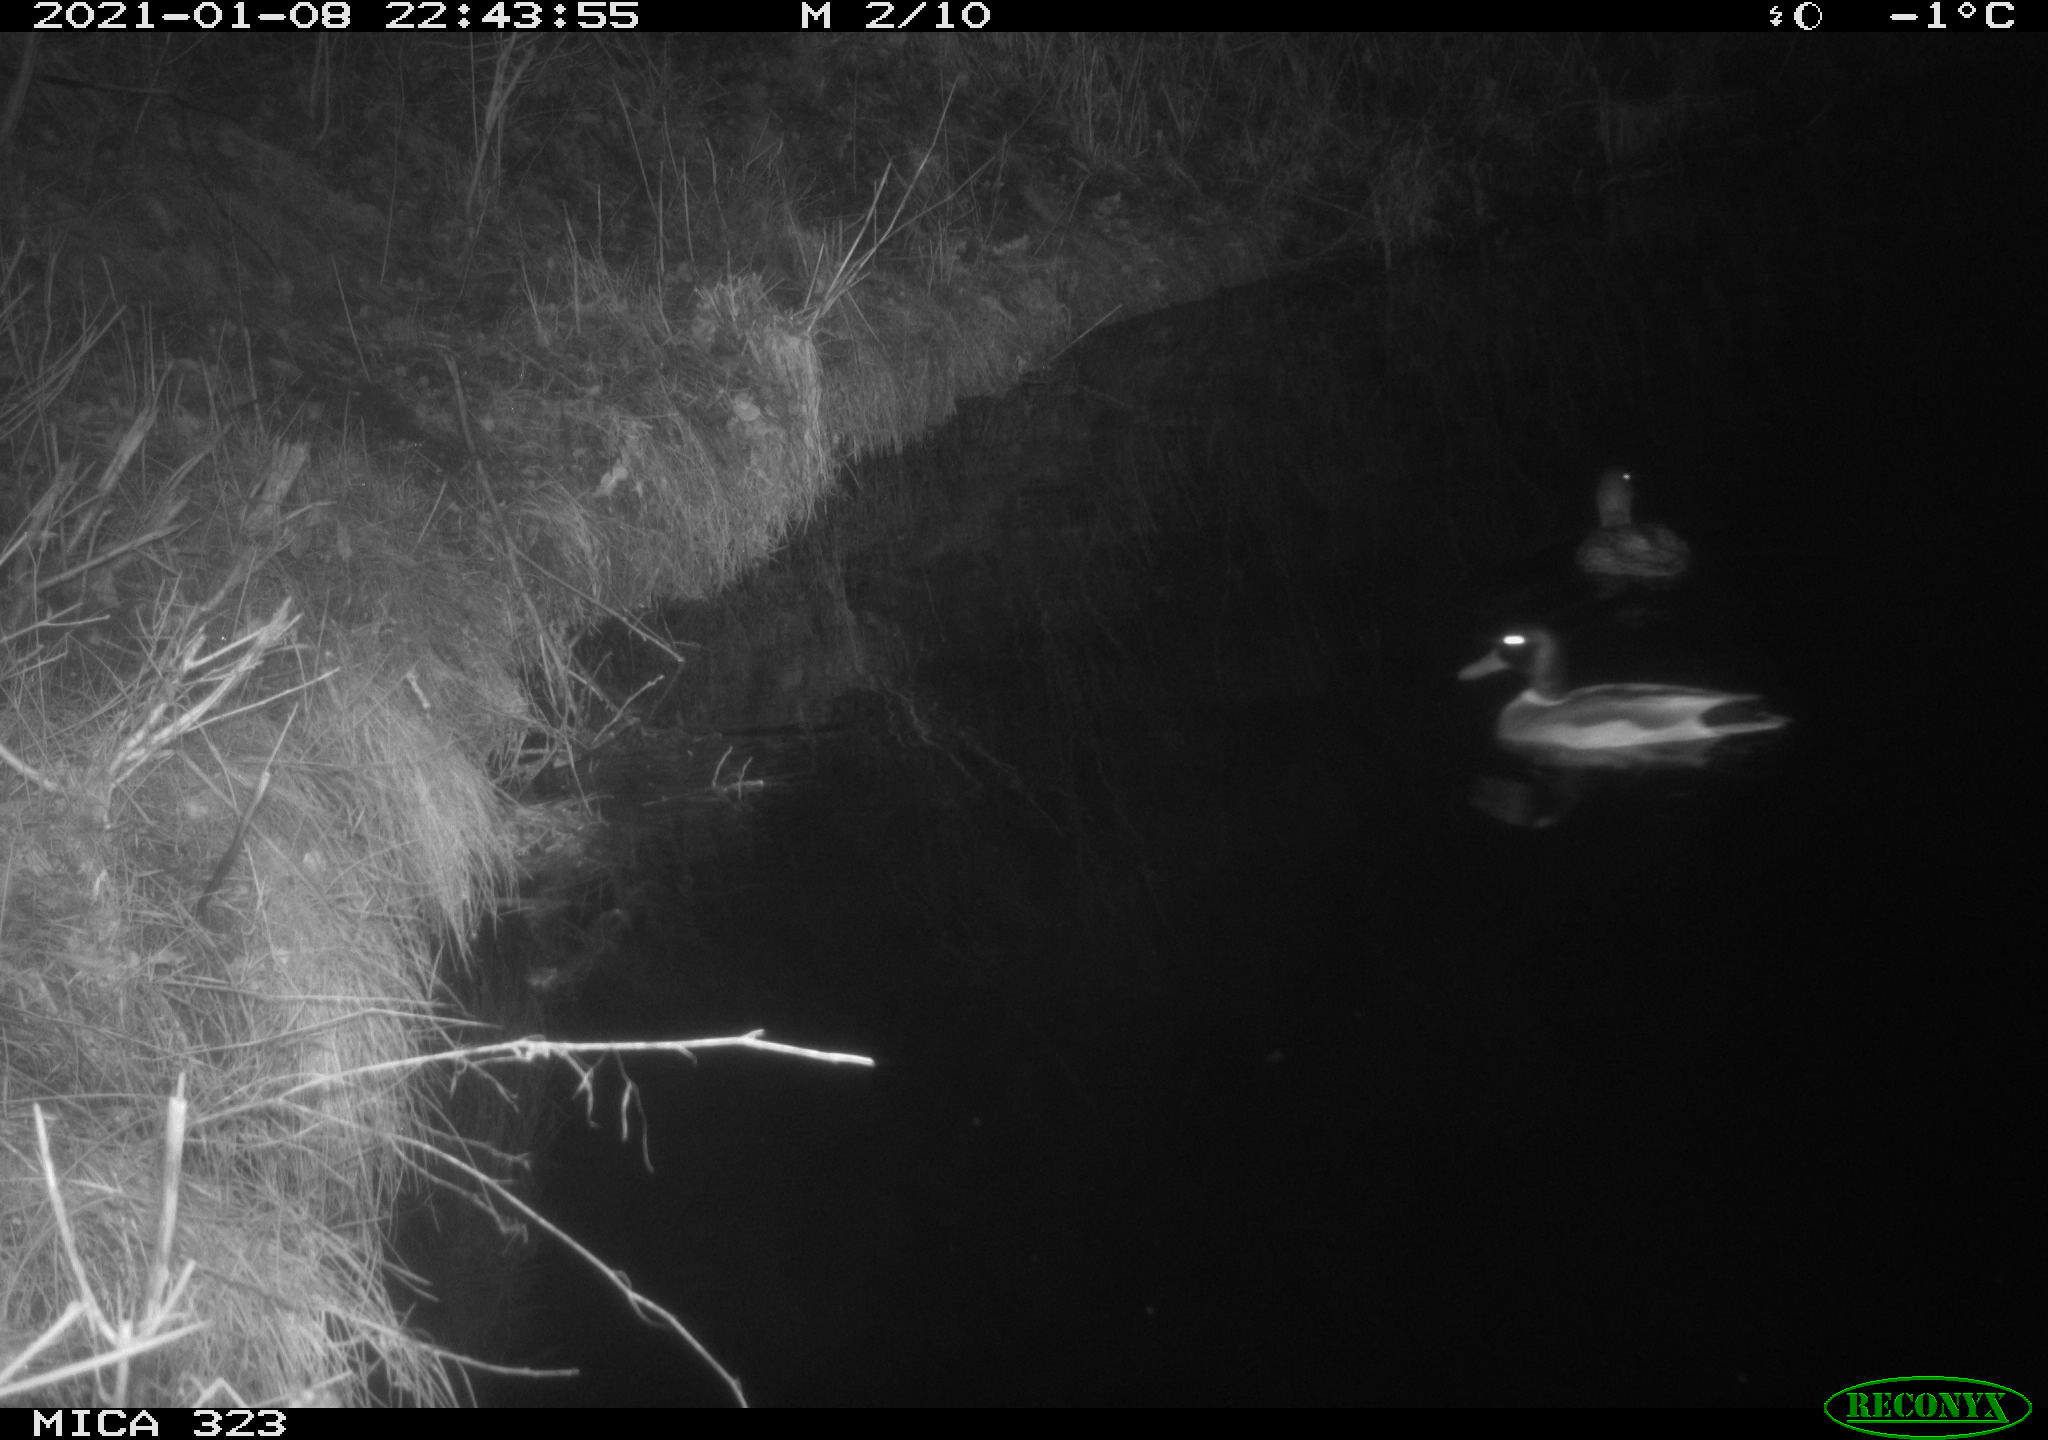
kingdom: Animalia
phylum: Chordata
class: Mammalia
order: Rodentia
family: Myocastoridae
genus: Myocastor
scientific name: Myocastor coypus
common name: Coypu
